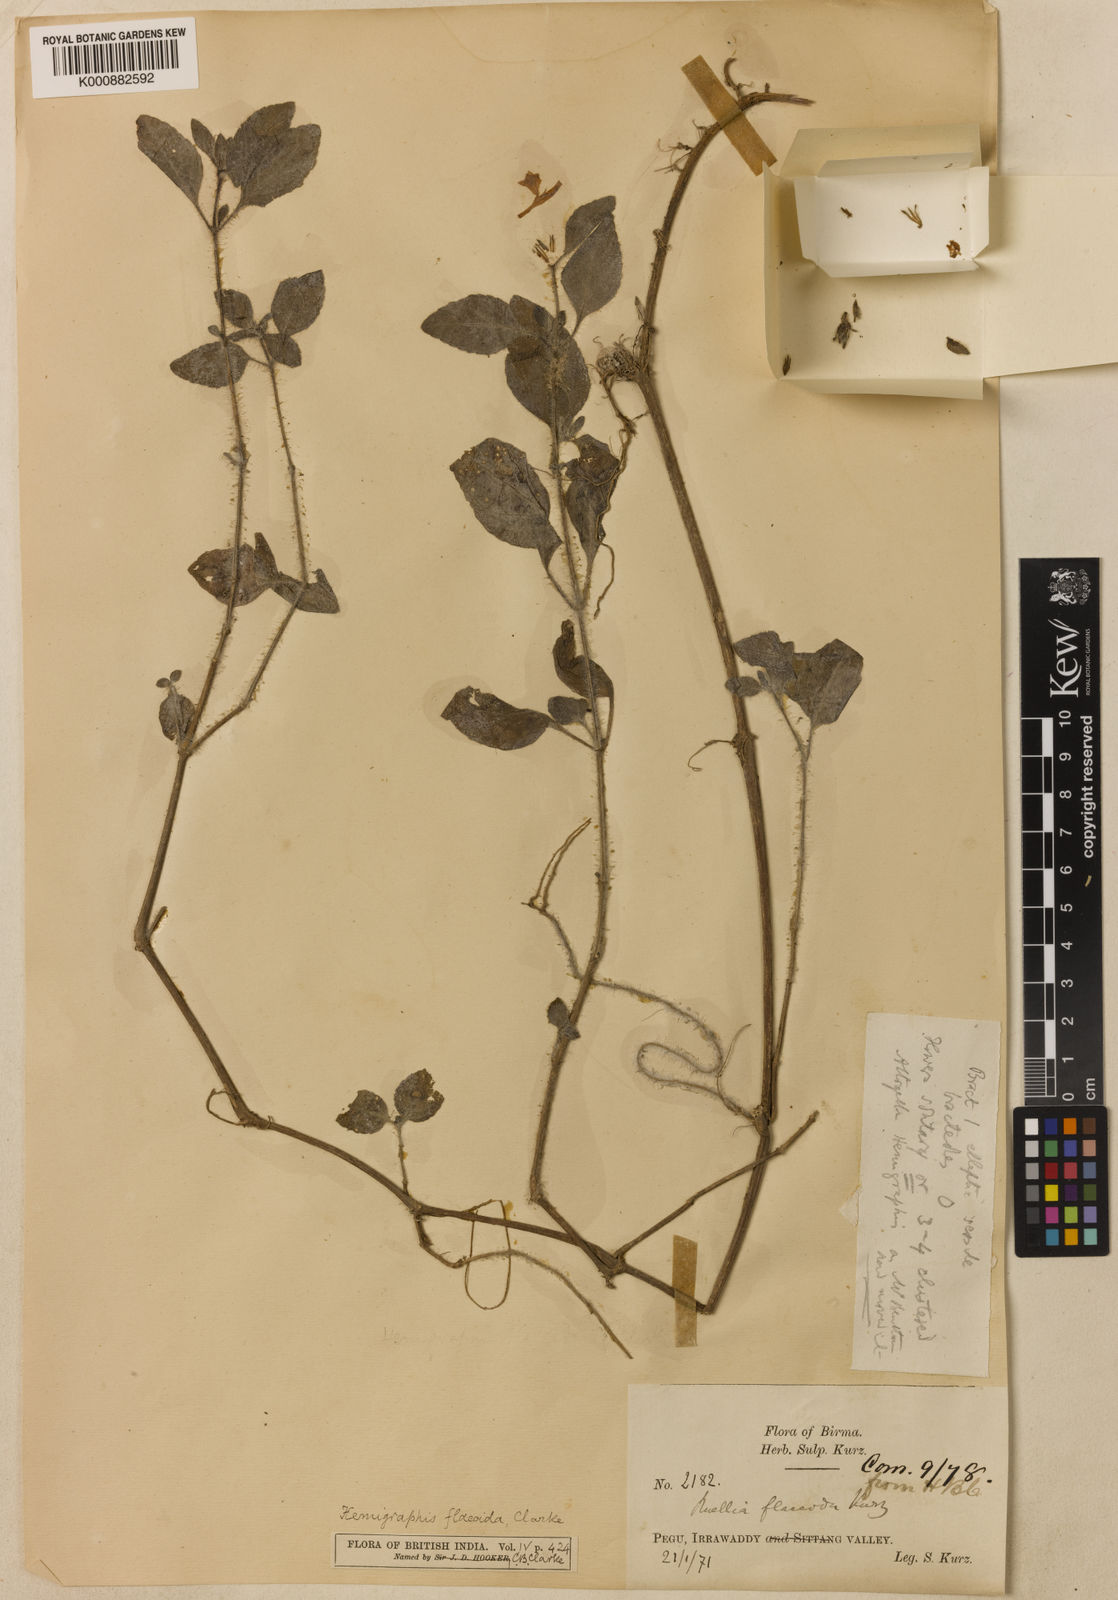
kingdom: Plantae
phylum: Tracheophyta
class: Magnoliopsida
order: Lamiales
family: Acanthaceae
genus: Hemigraphis
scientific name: Hemigraphis flaccida
